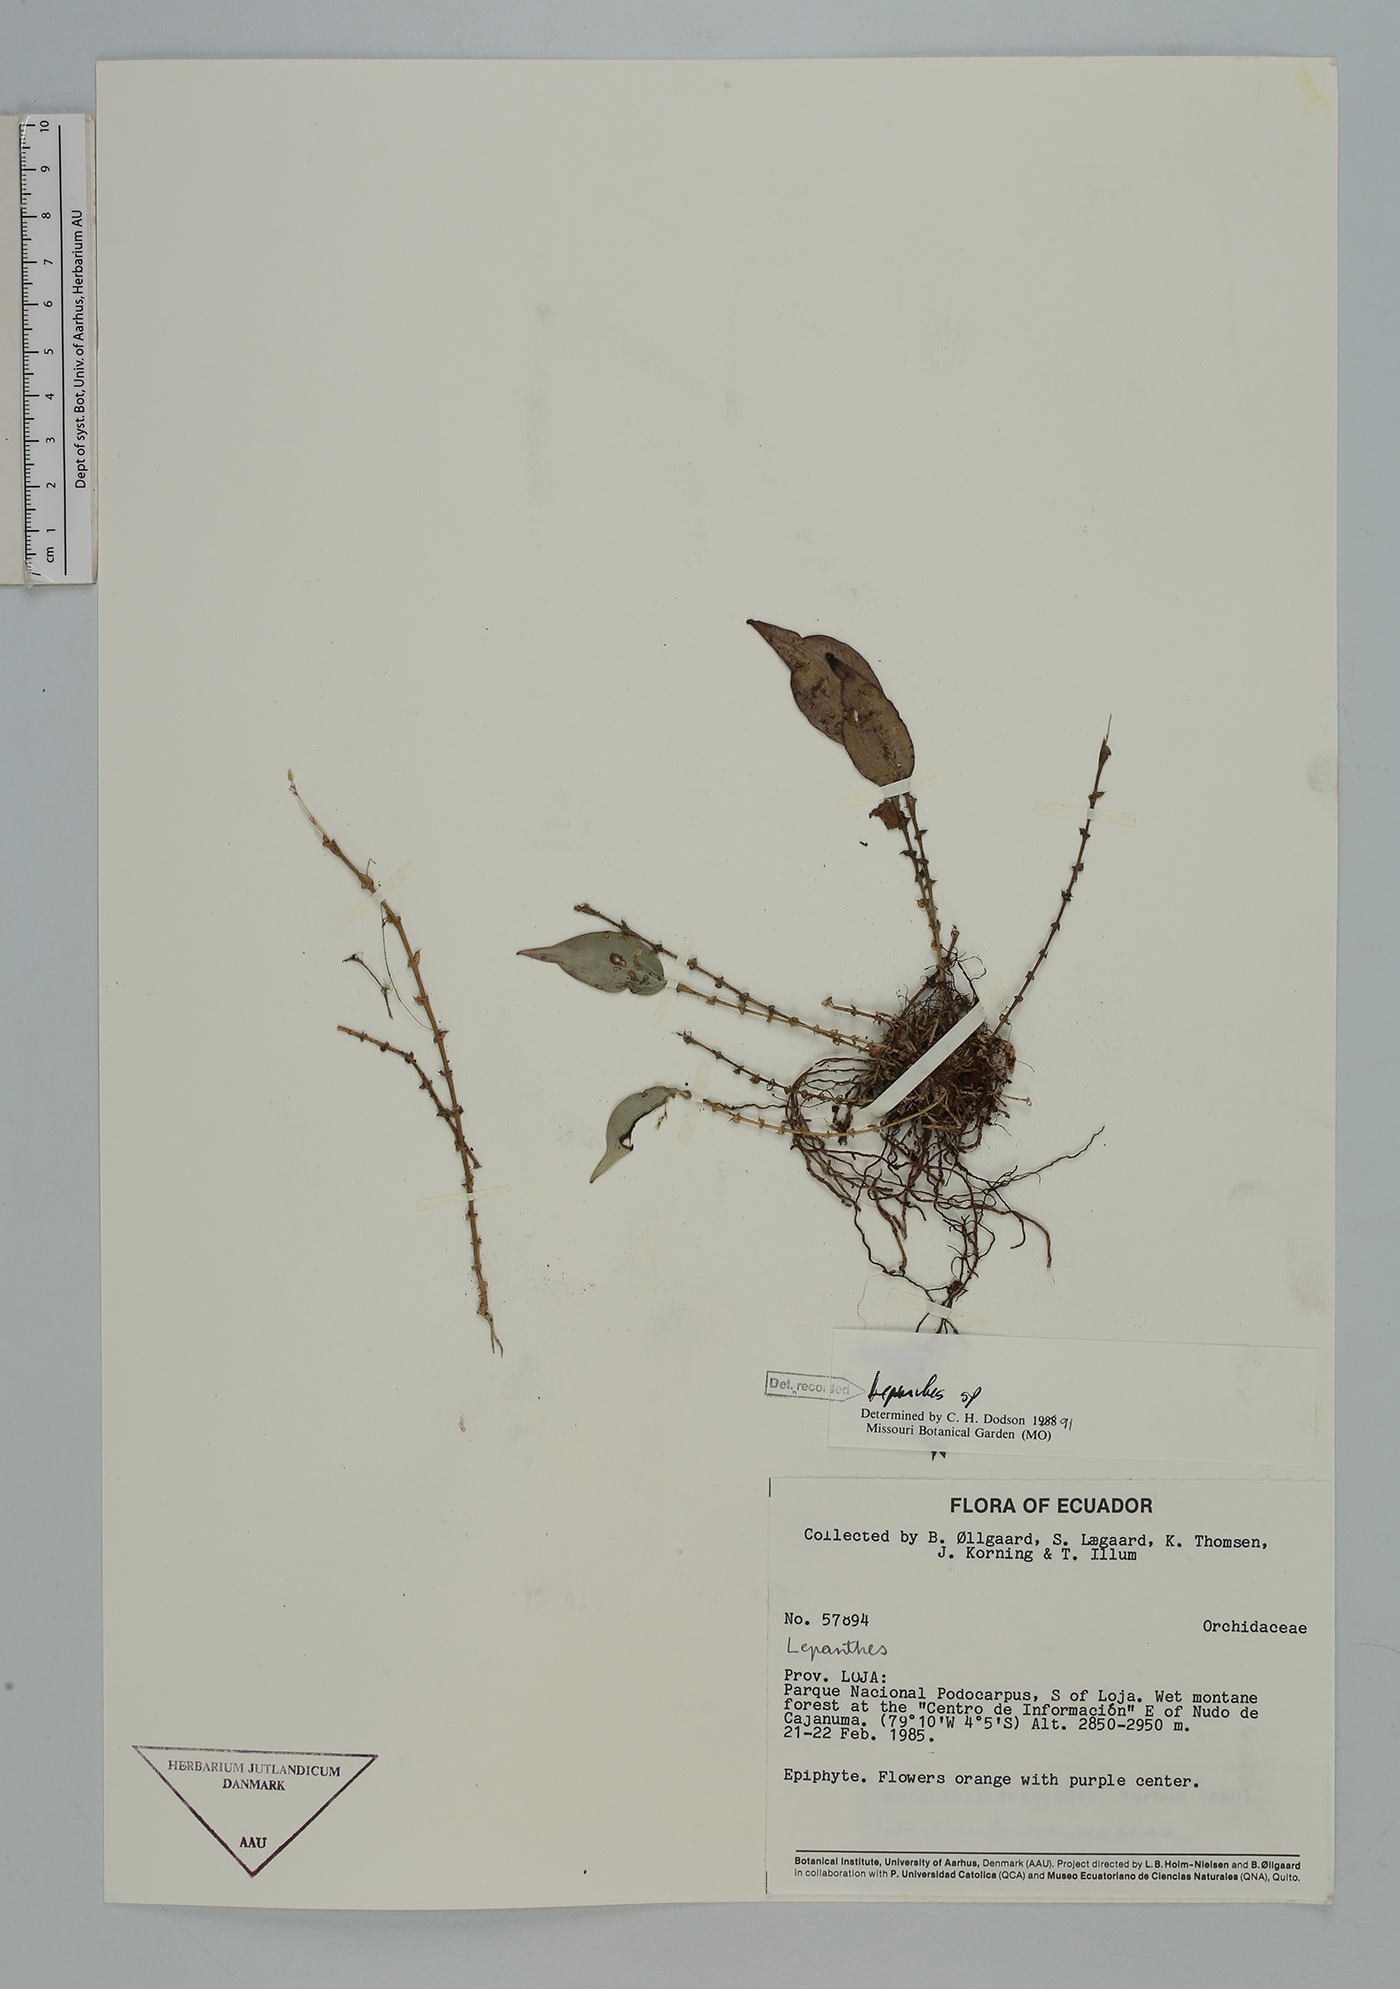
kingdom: Plantae
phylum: Tracheophyta
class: Liliopsida
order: Asparagales
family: Orchidaceae
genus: Lepanthes
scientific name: Lepanthes
